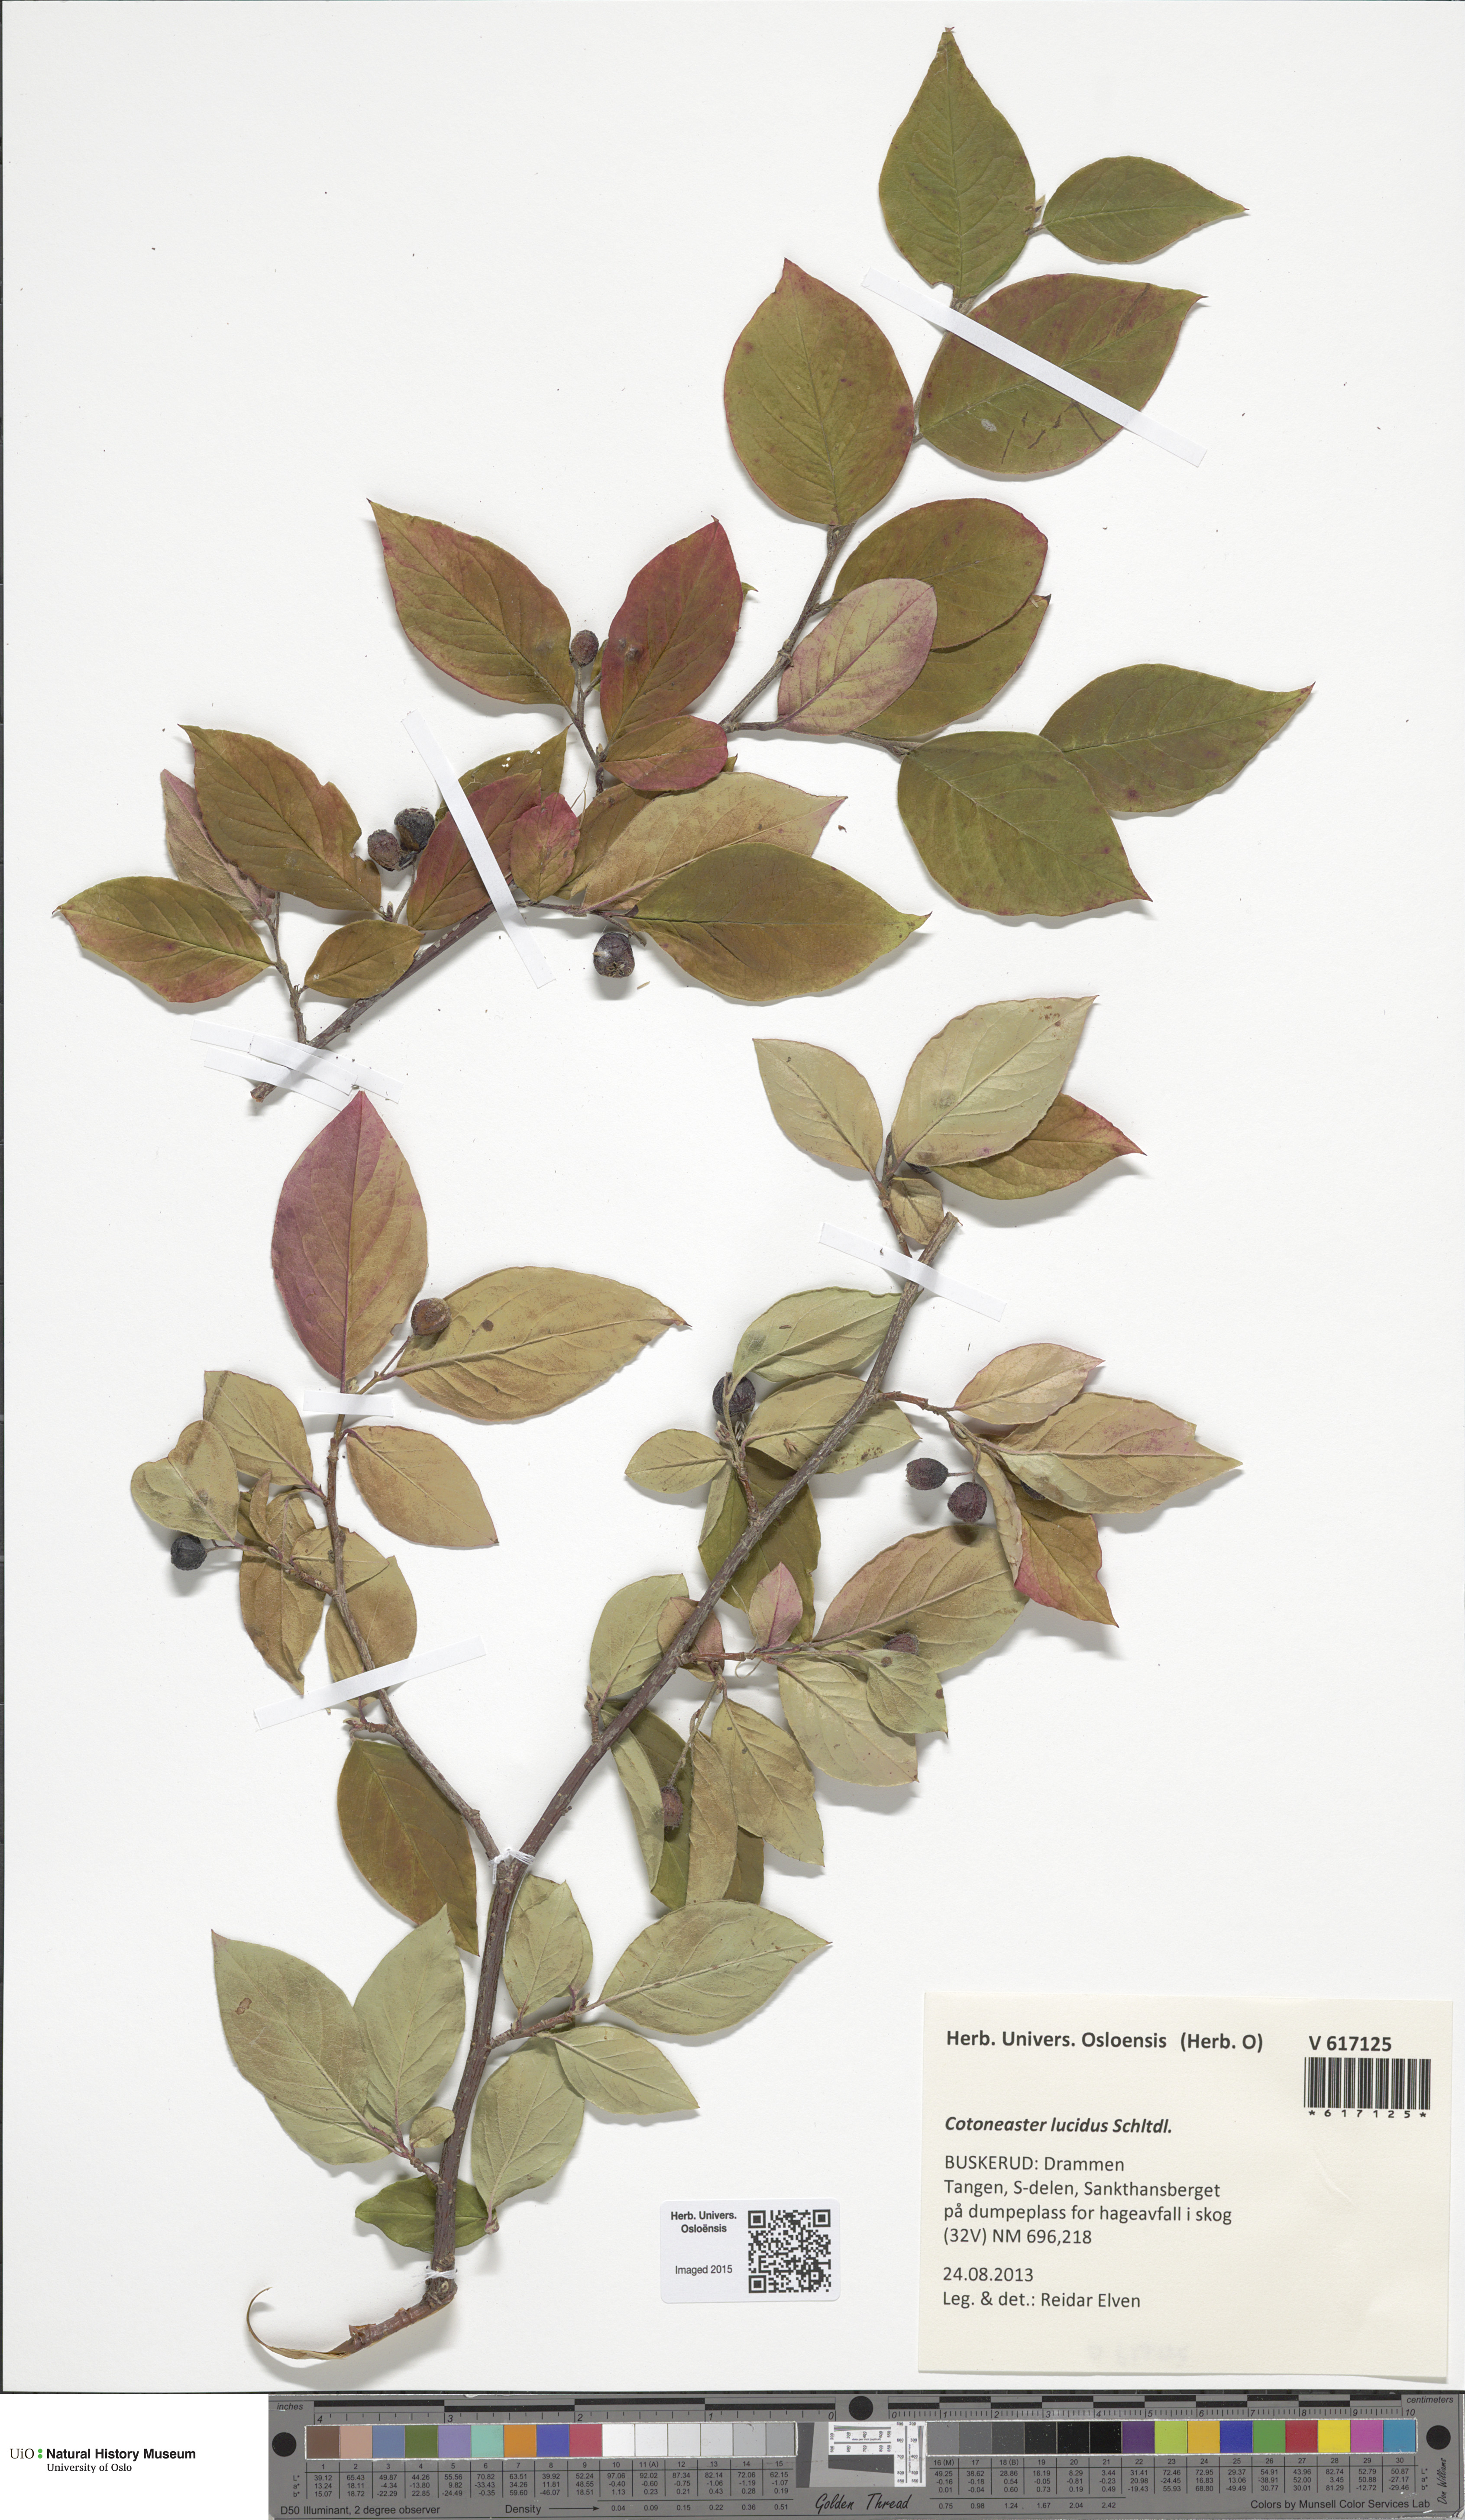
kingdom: Plantae
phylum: Tracheophyta
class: Magnoliopsida
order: Rosales
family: Rosaceae
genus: Cotoneaster
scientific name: Cotoneaster acutifolius
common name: Peking cotoneaster
